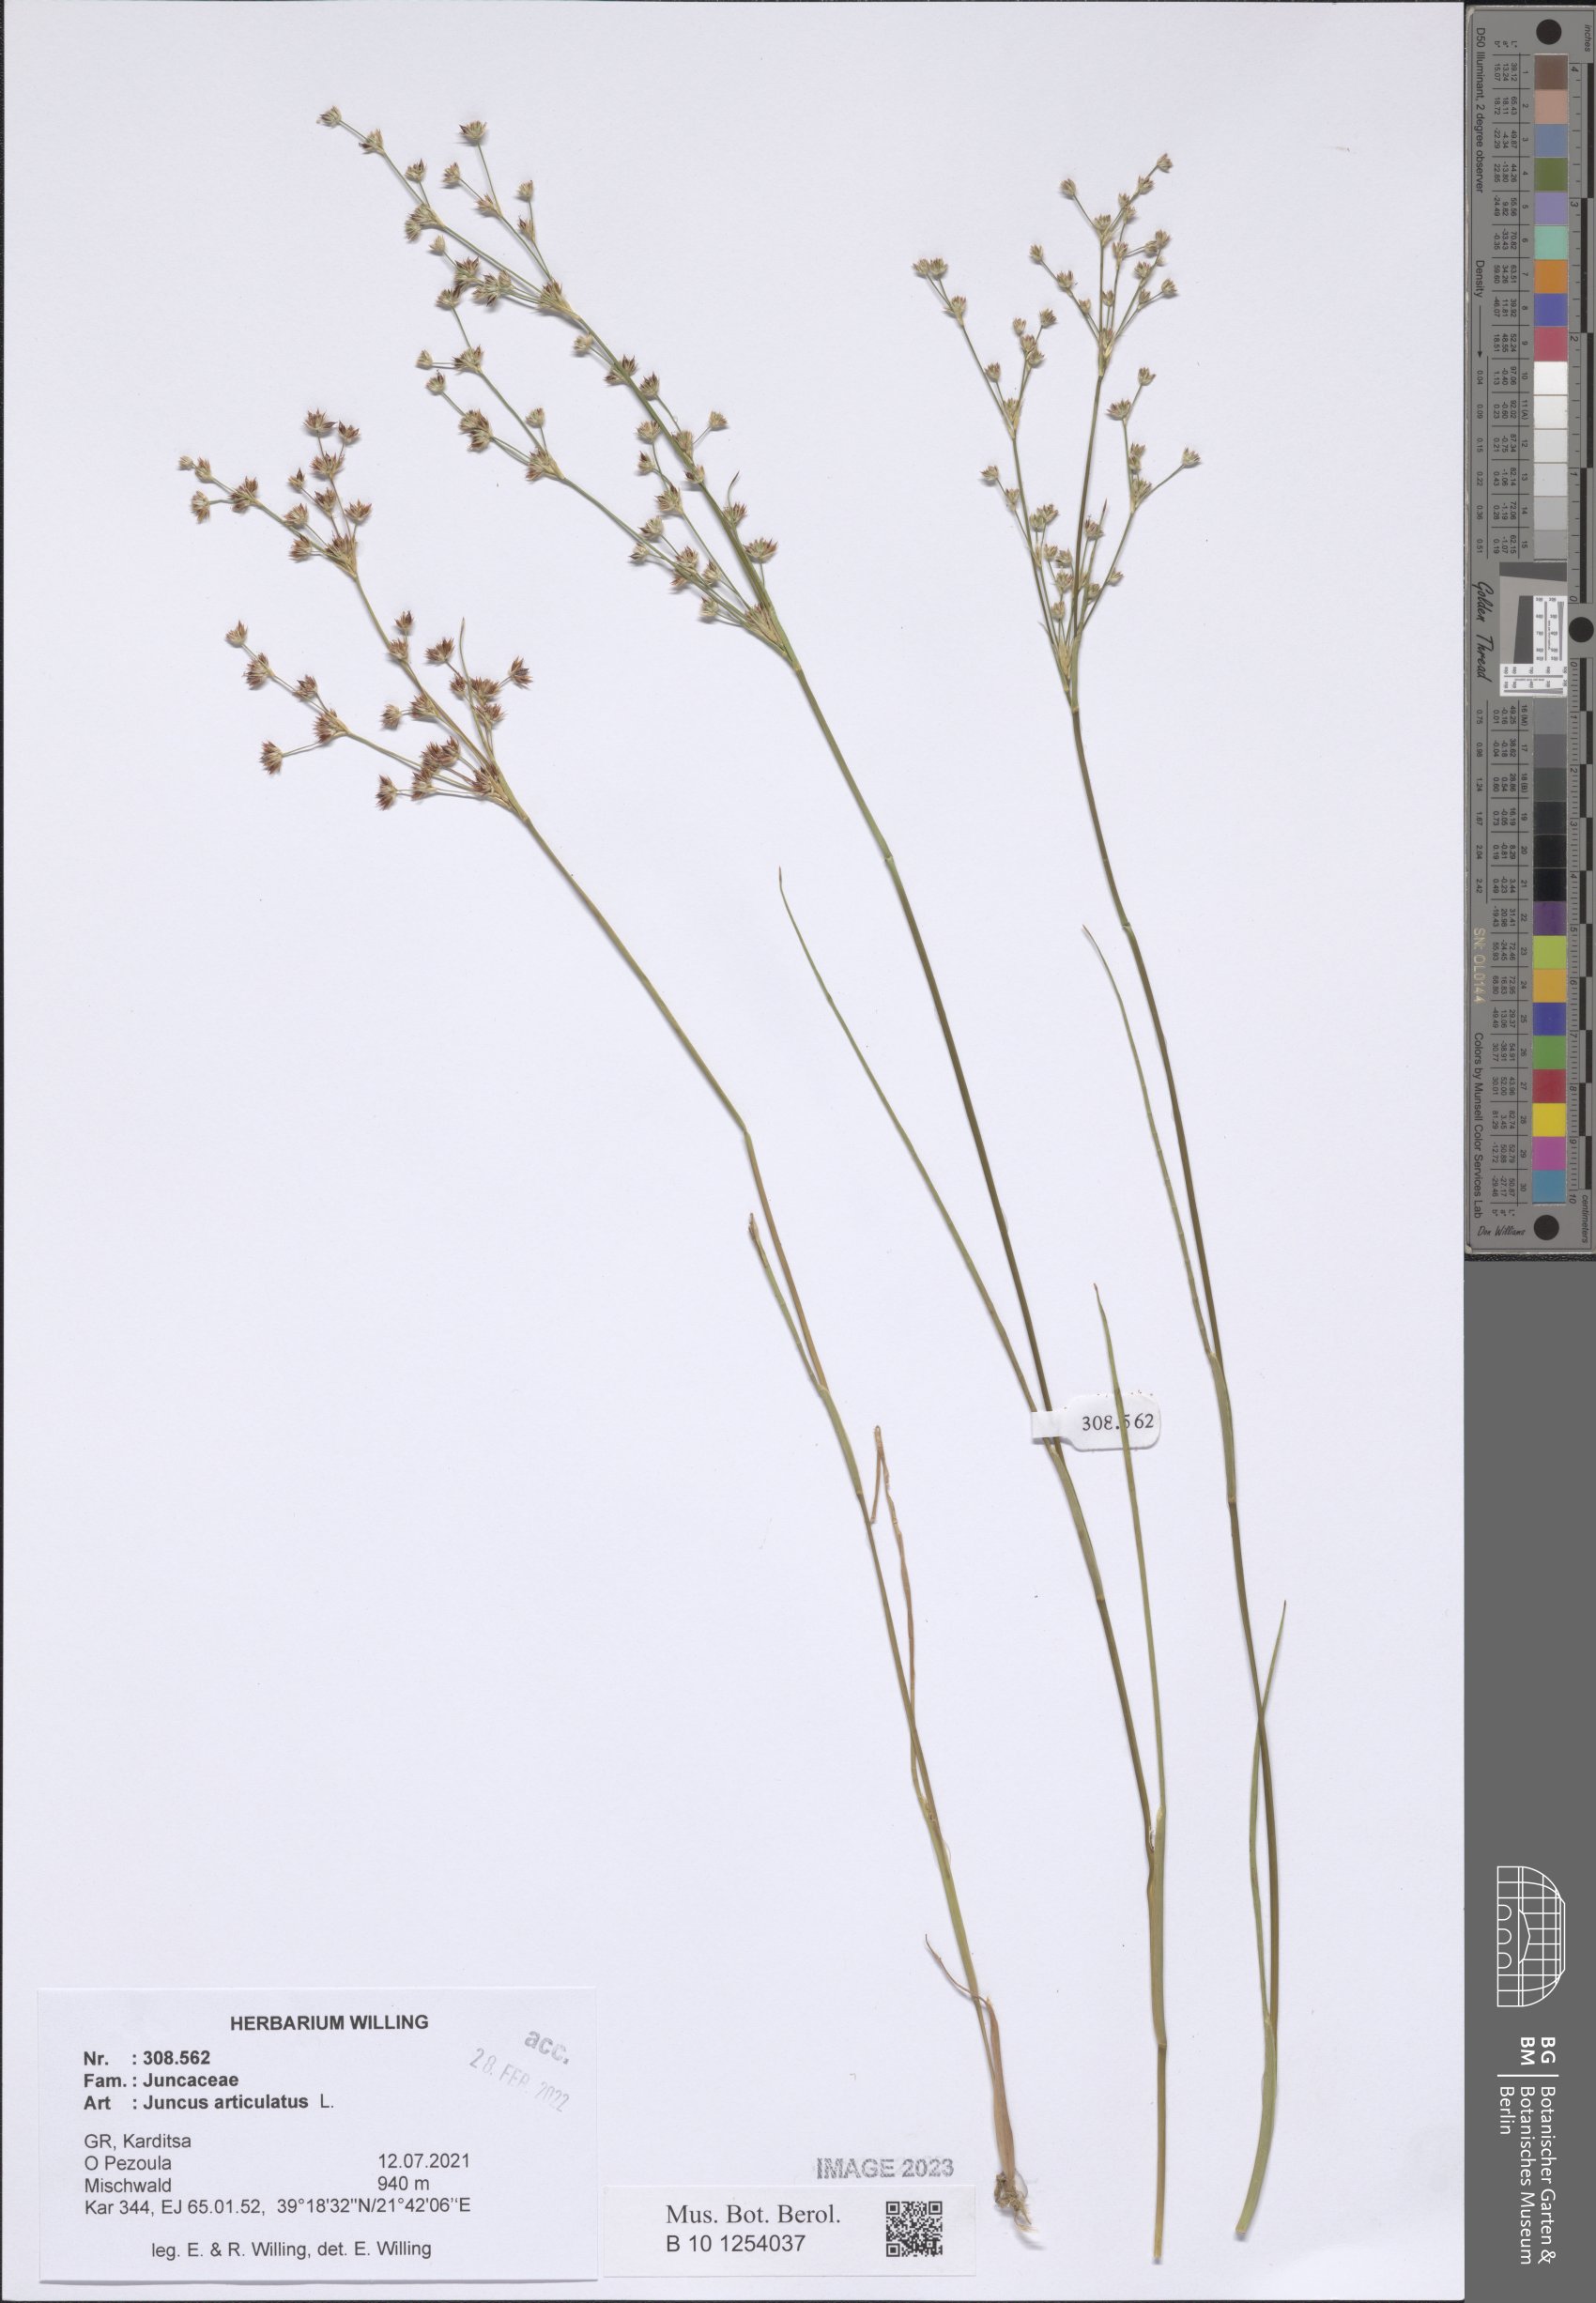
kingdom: Plantae
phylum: Tracheophyta
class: Liliopsida
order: Poales
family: Juncaceae
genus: Juncus
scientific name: Juncus articulatus
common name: Jointed rush
